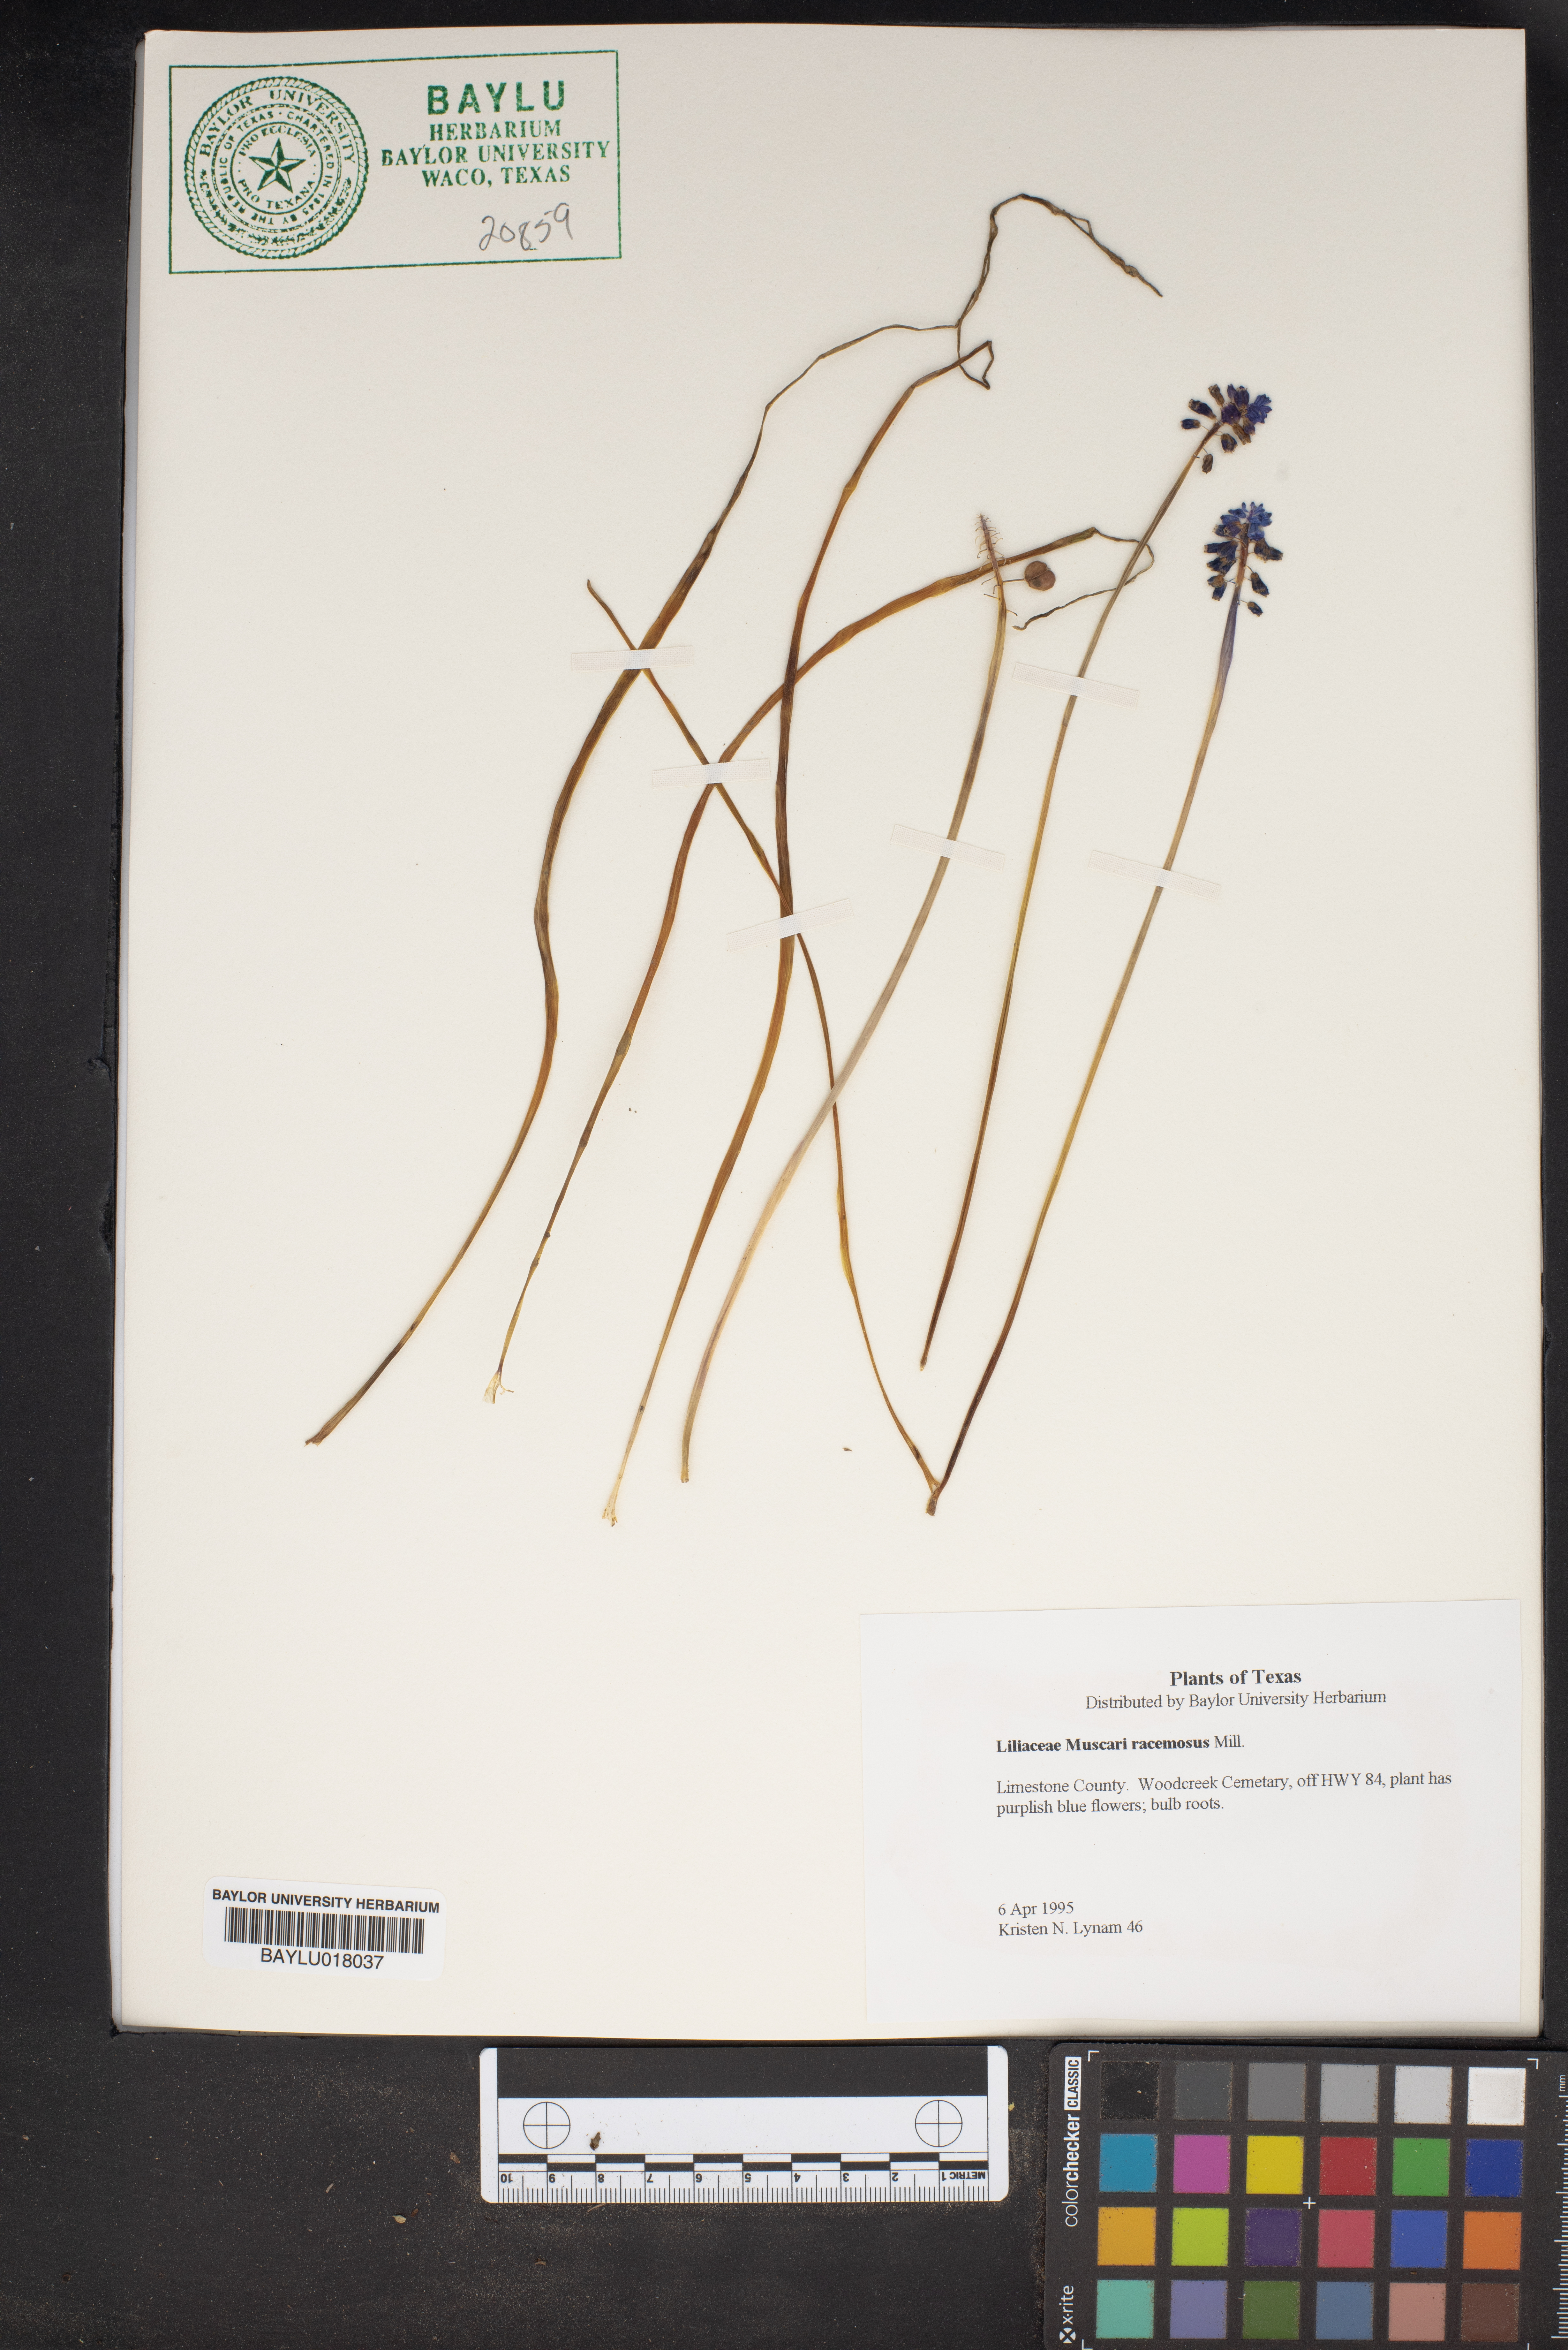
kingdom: Plantae
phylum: Tracheophyta
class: Liliopsida
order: Asparagales
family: Asparagaceae
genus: Muscarimia
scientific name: Muscarimia muscari
